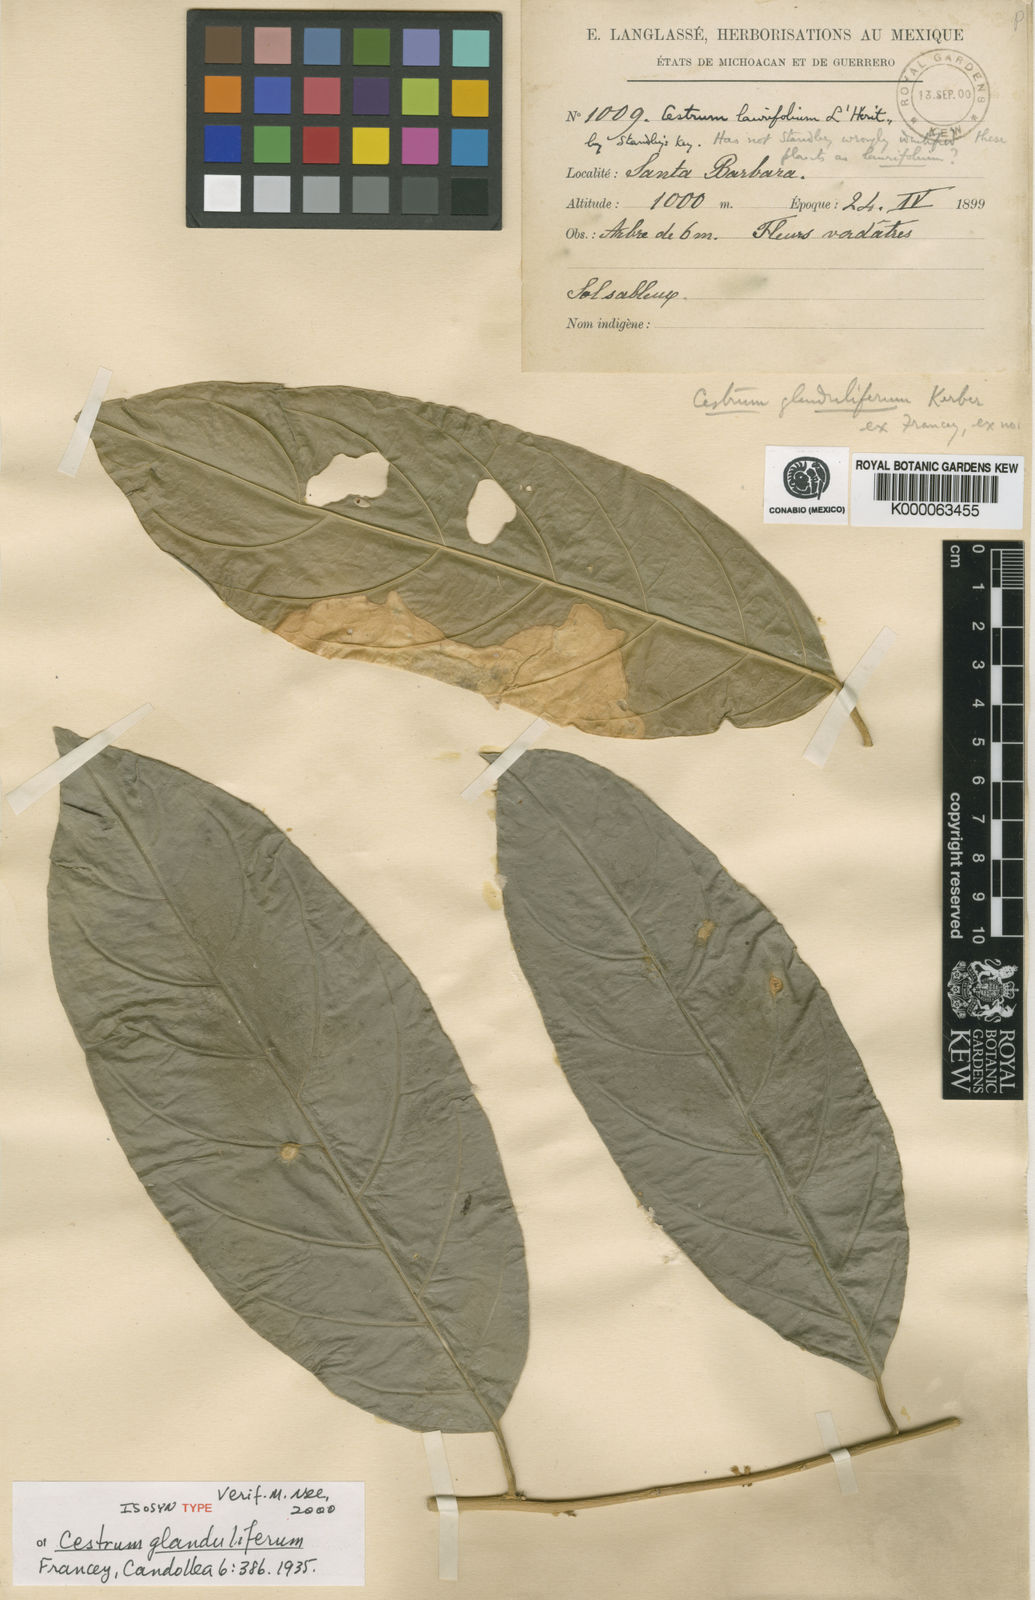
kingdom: Plantae
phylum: Tracheophyta
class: Magnoliopsida
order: Solanales
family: Solanaceae
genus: Cestrum
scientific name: Cestrum glanduliferum
